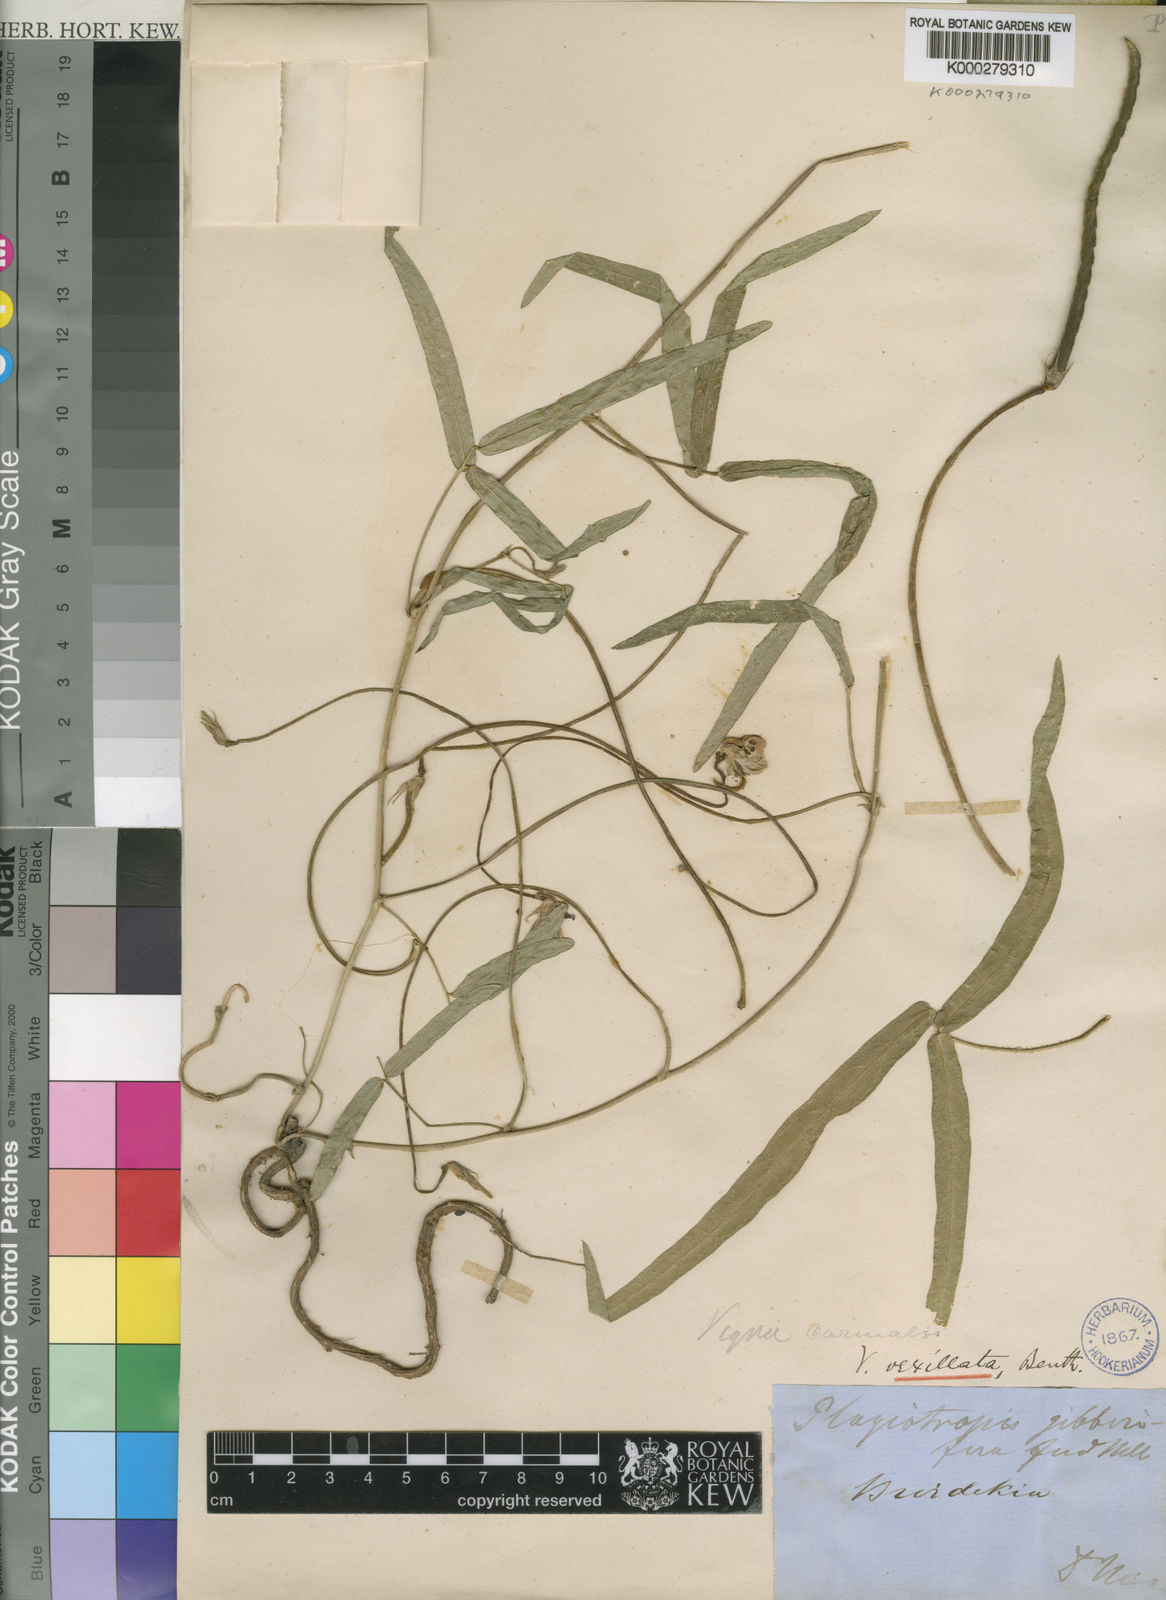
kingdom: Plantae
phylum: Tracheophyta
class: Magnoliopsida
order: Fabales
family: Fabaceae
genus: Vigna
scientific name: Vigna vexillata
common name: Zombi pea
